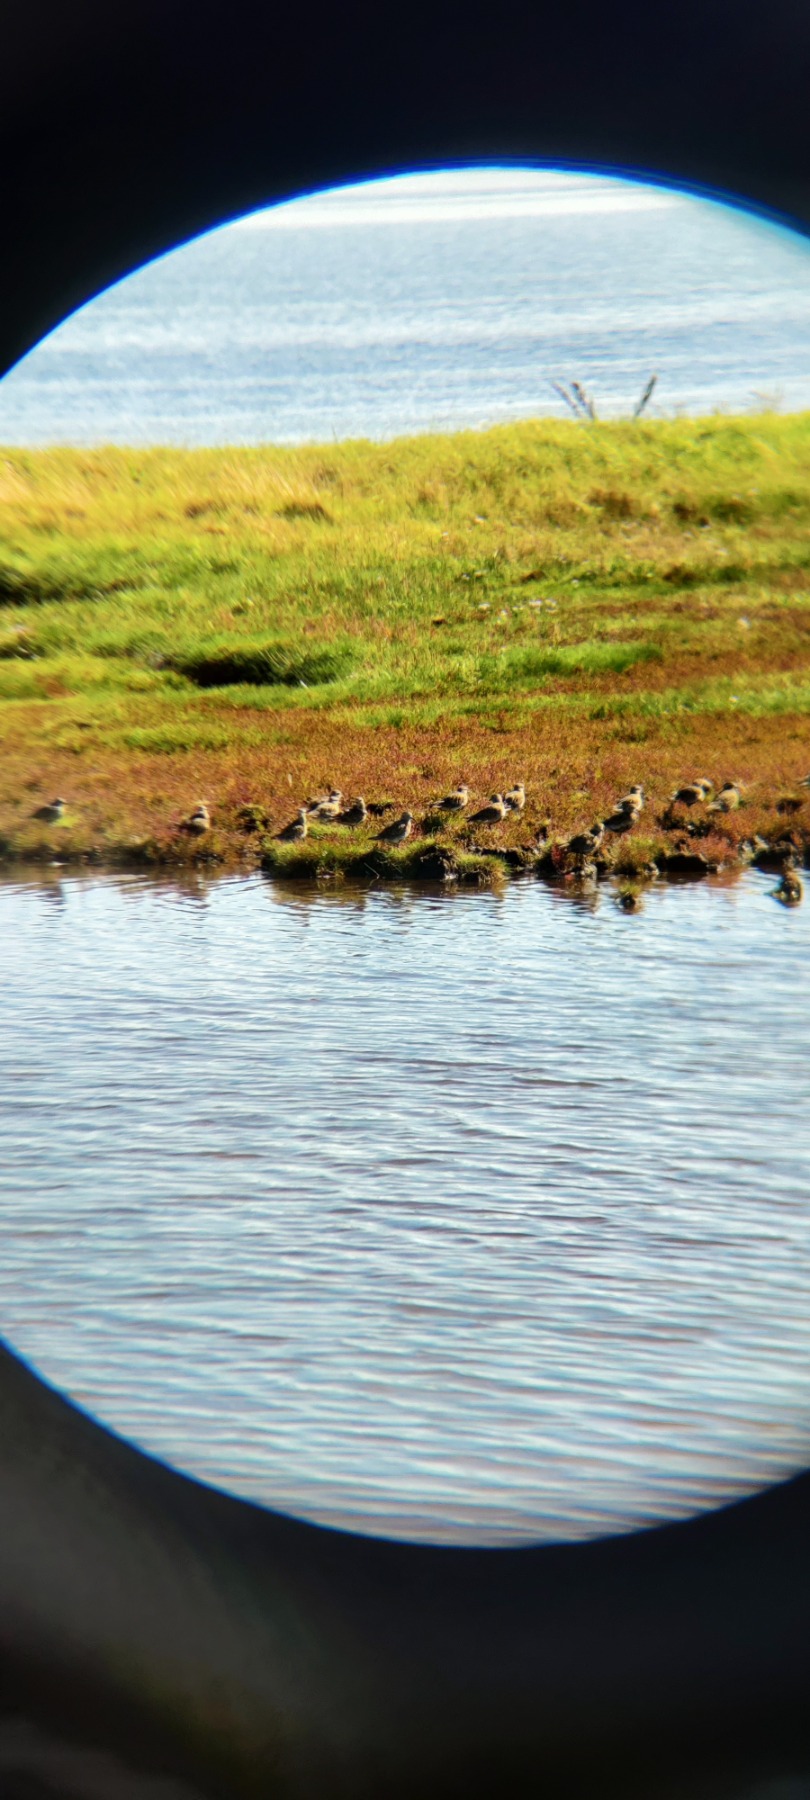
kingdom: Animalia
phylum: Chordata
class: Aves
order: Charadriiformes
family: Charadriidae
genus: Pluvialis
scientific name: Pluvialis apricaria
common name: Hjejle
